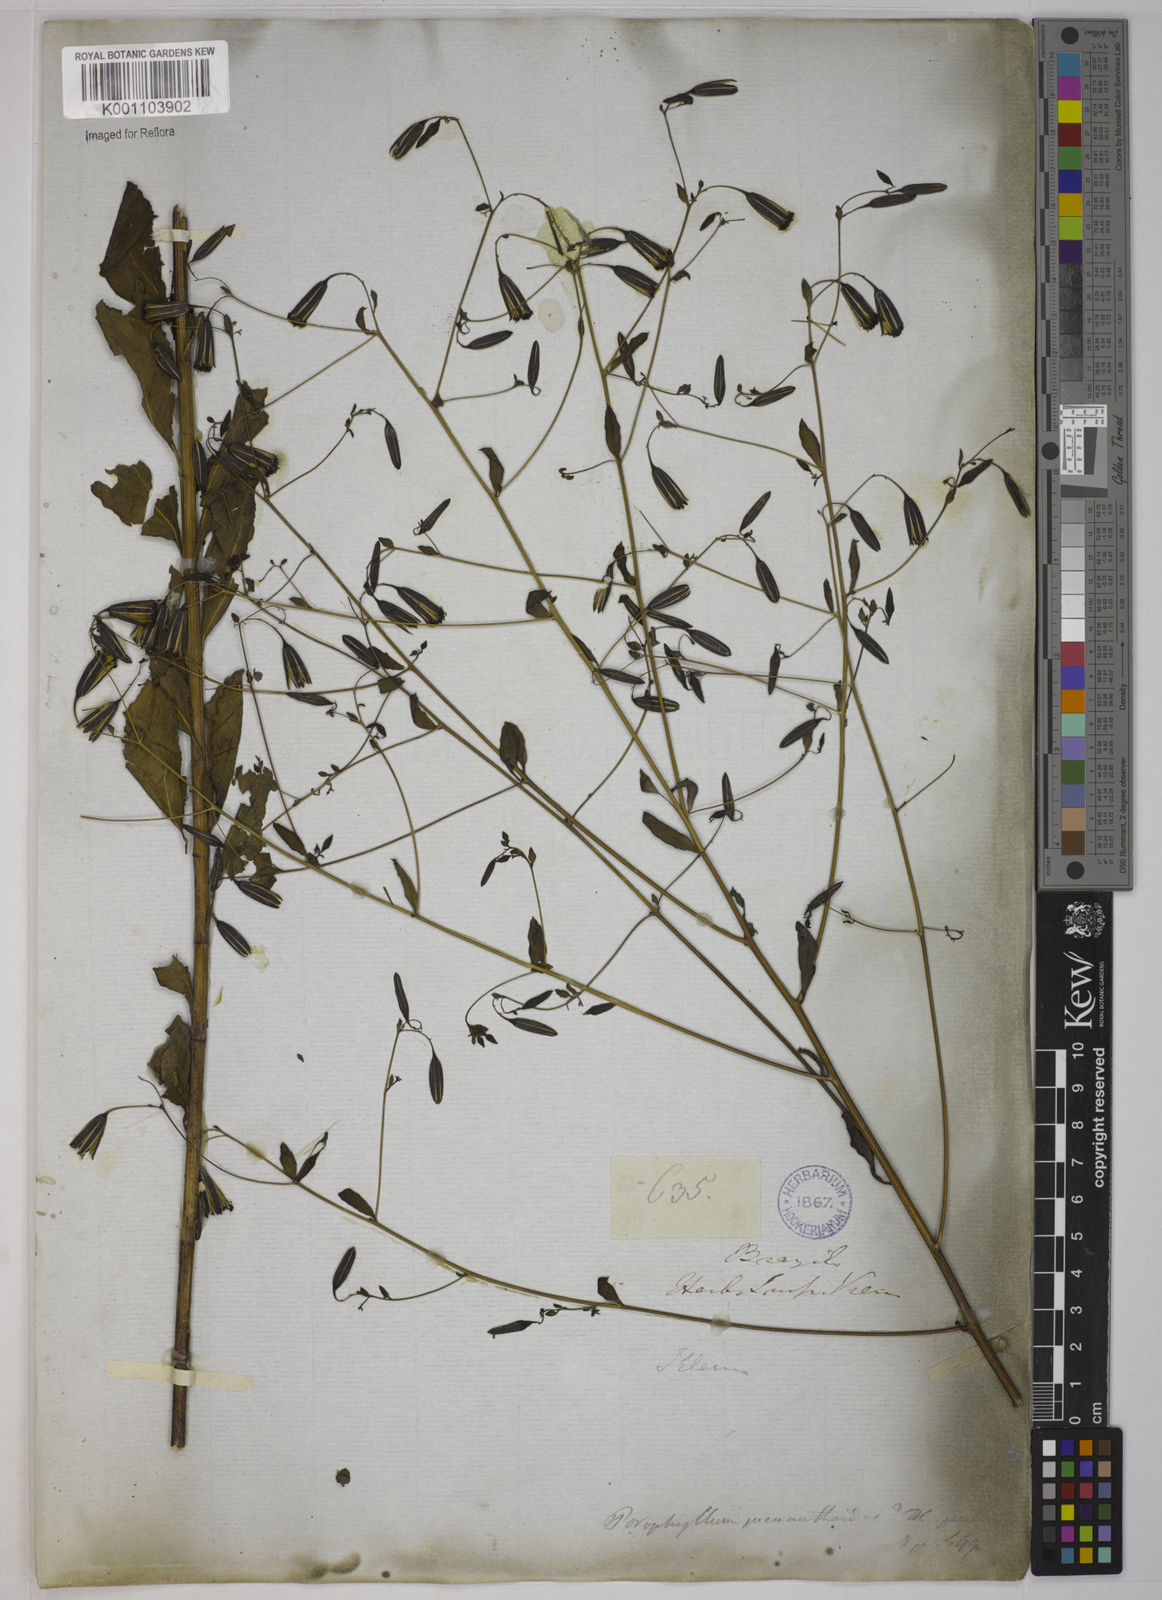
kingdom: Plantae
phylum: Tracheophyta
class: Magnoliopsida
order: Asterales
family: Asteraceae
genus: Porophyllum
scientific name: Porophyllum obscurum
